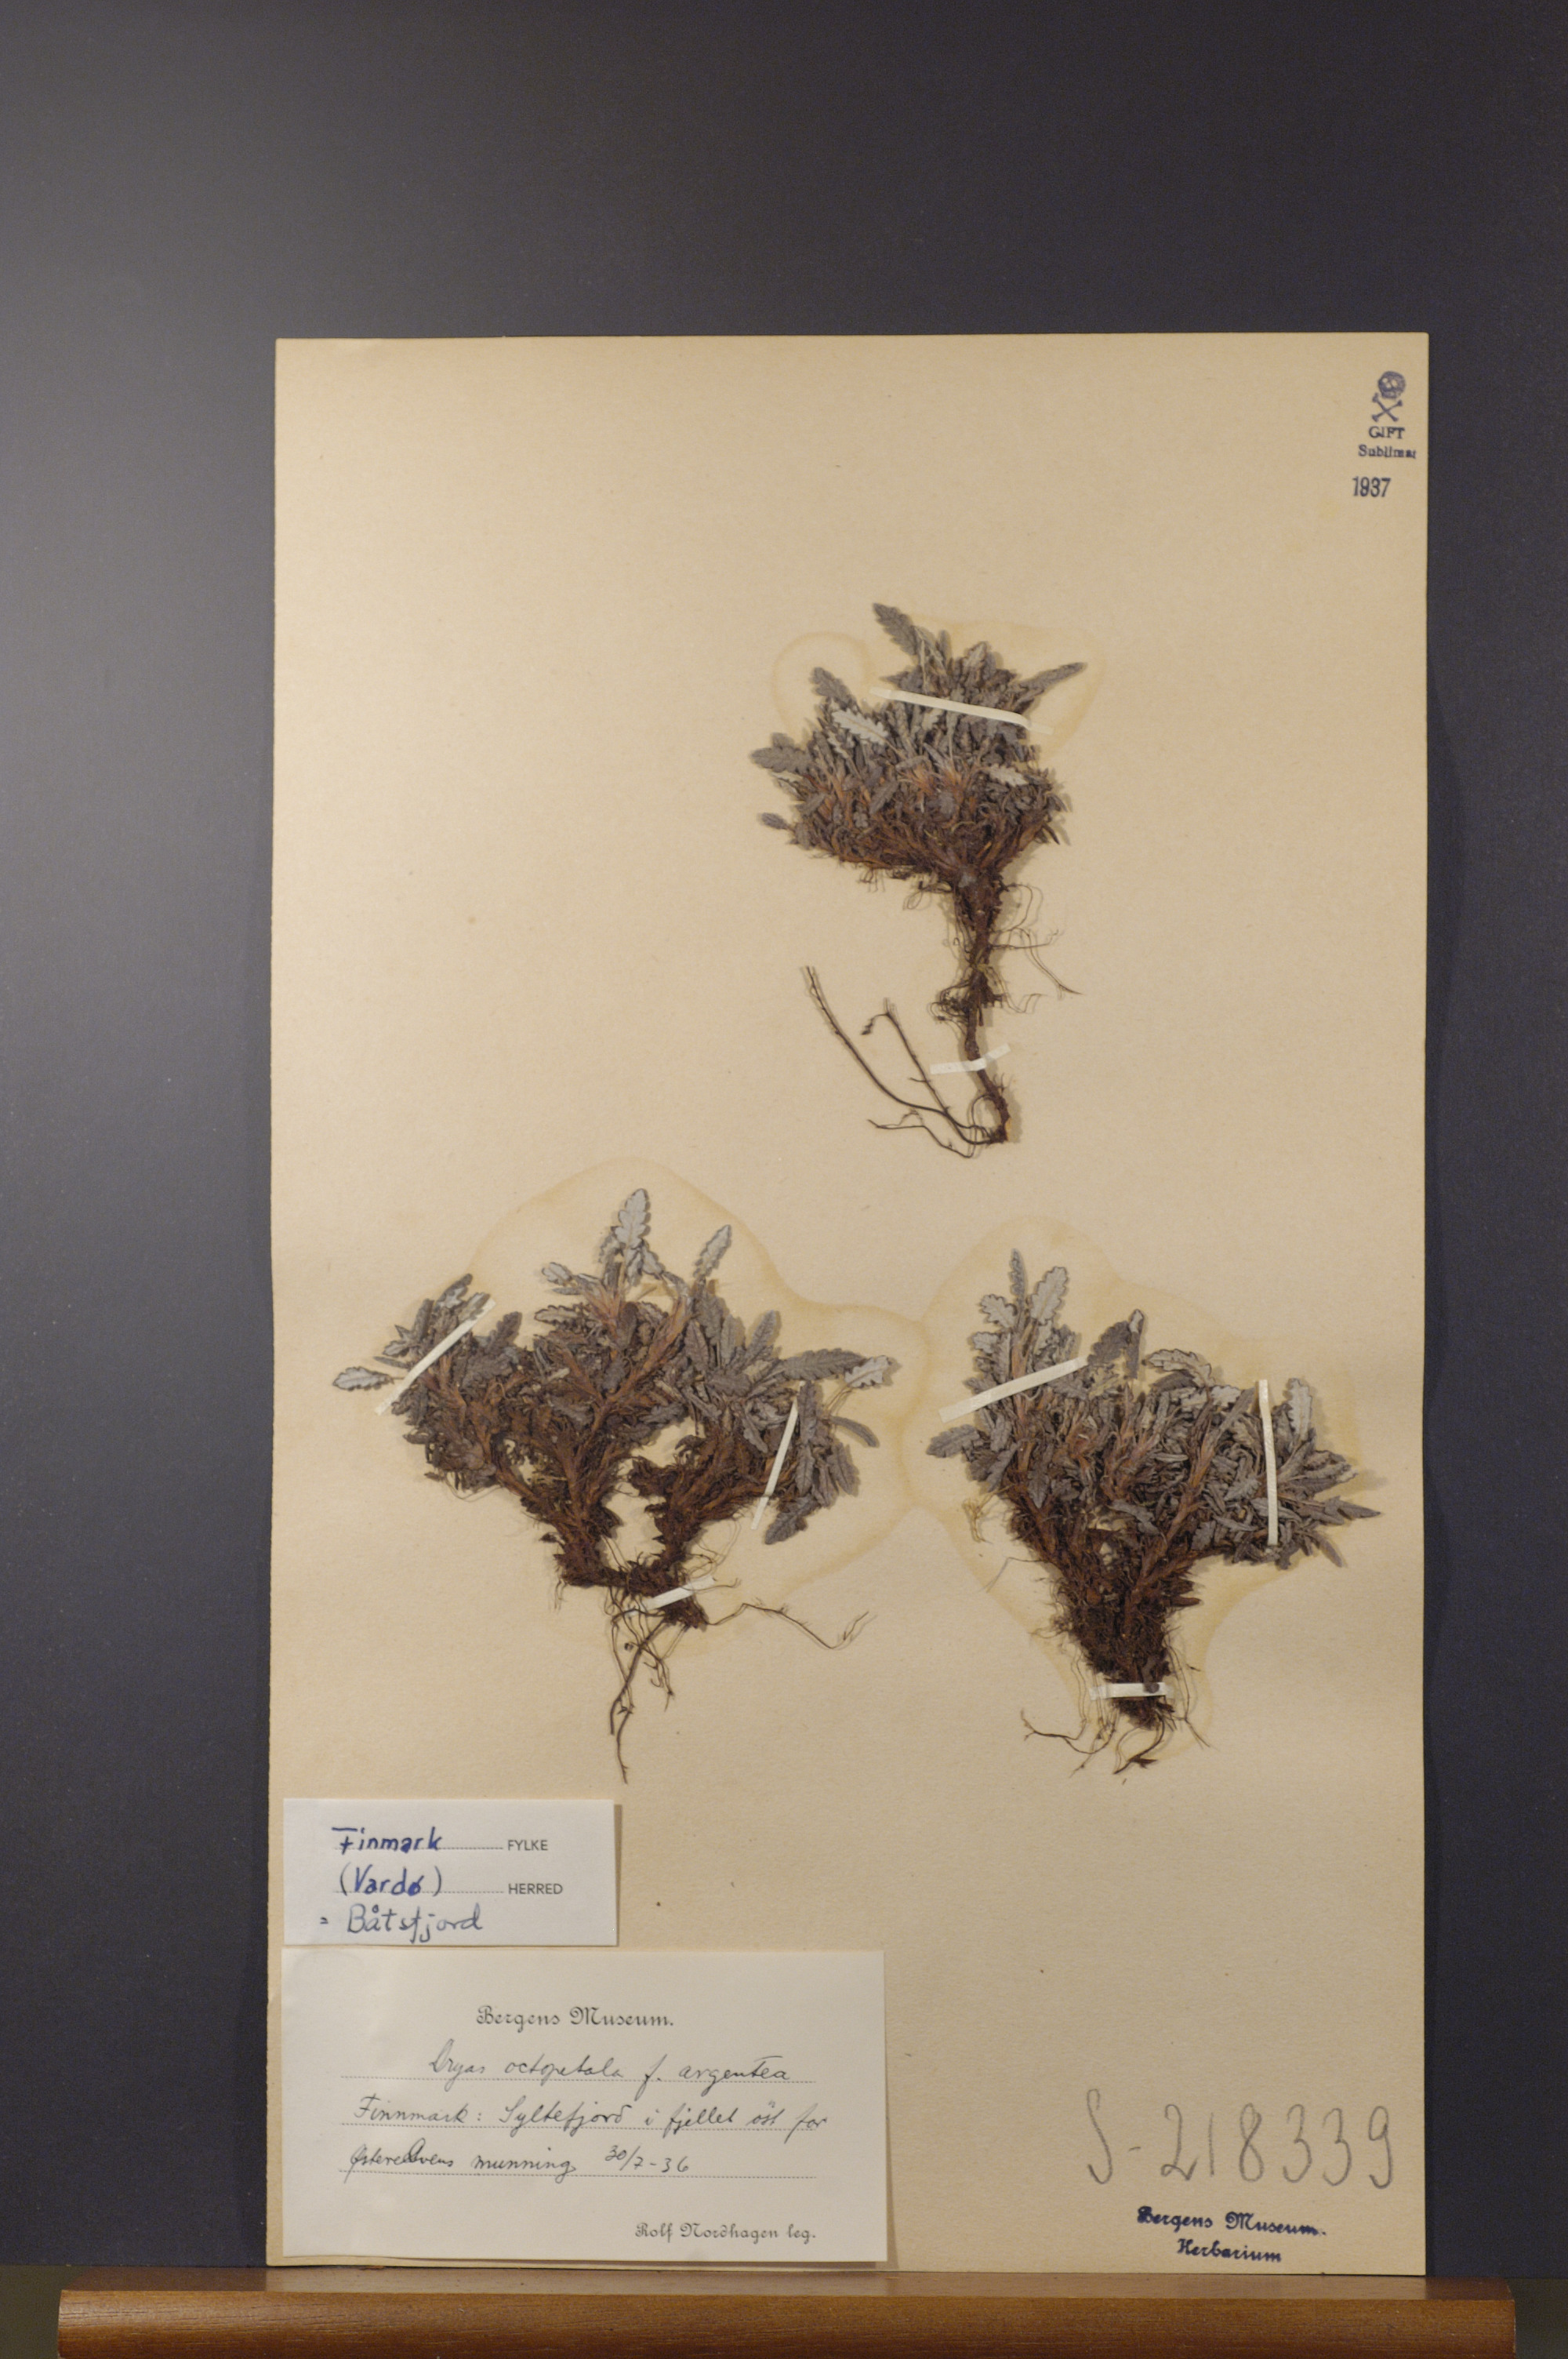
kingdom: Plantae
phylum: Tracheophyta
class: Magnoliopsida
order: Rosales
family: Rosaceae
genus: Dryas
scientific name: Dryas octopetala
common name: Eight-petal mountain-avens
